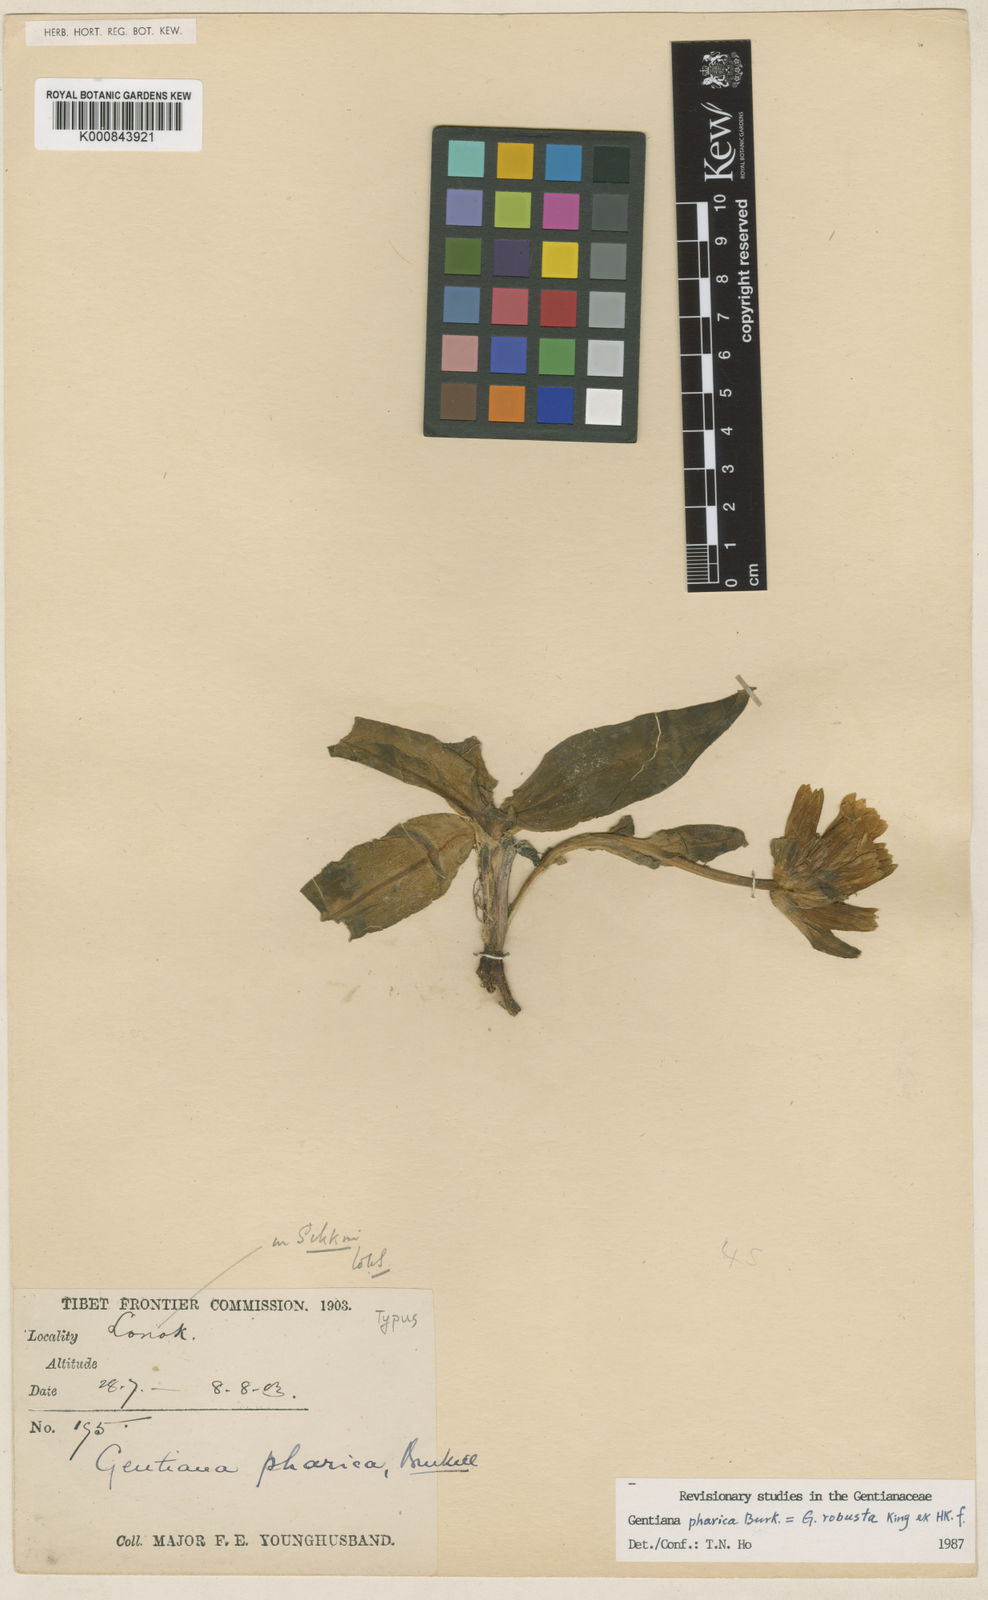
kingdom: Plantae
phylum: Tracheophyta
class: Magnoliopsida
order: Gentianales
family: Gentianaceae
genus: Gentiana
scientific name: Gentiana robusta
